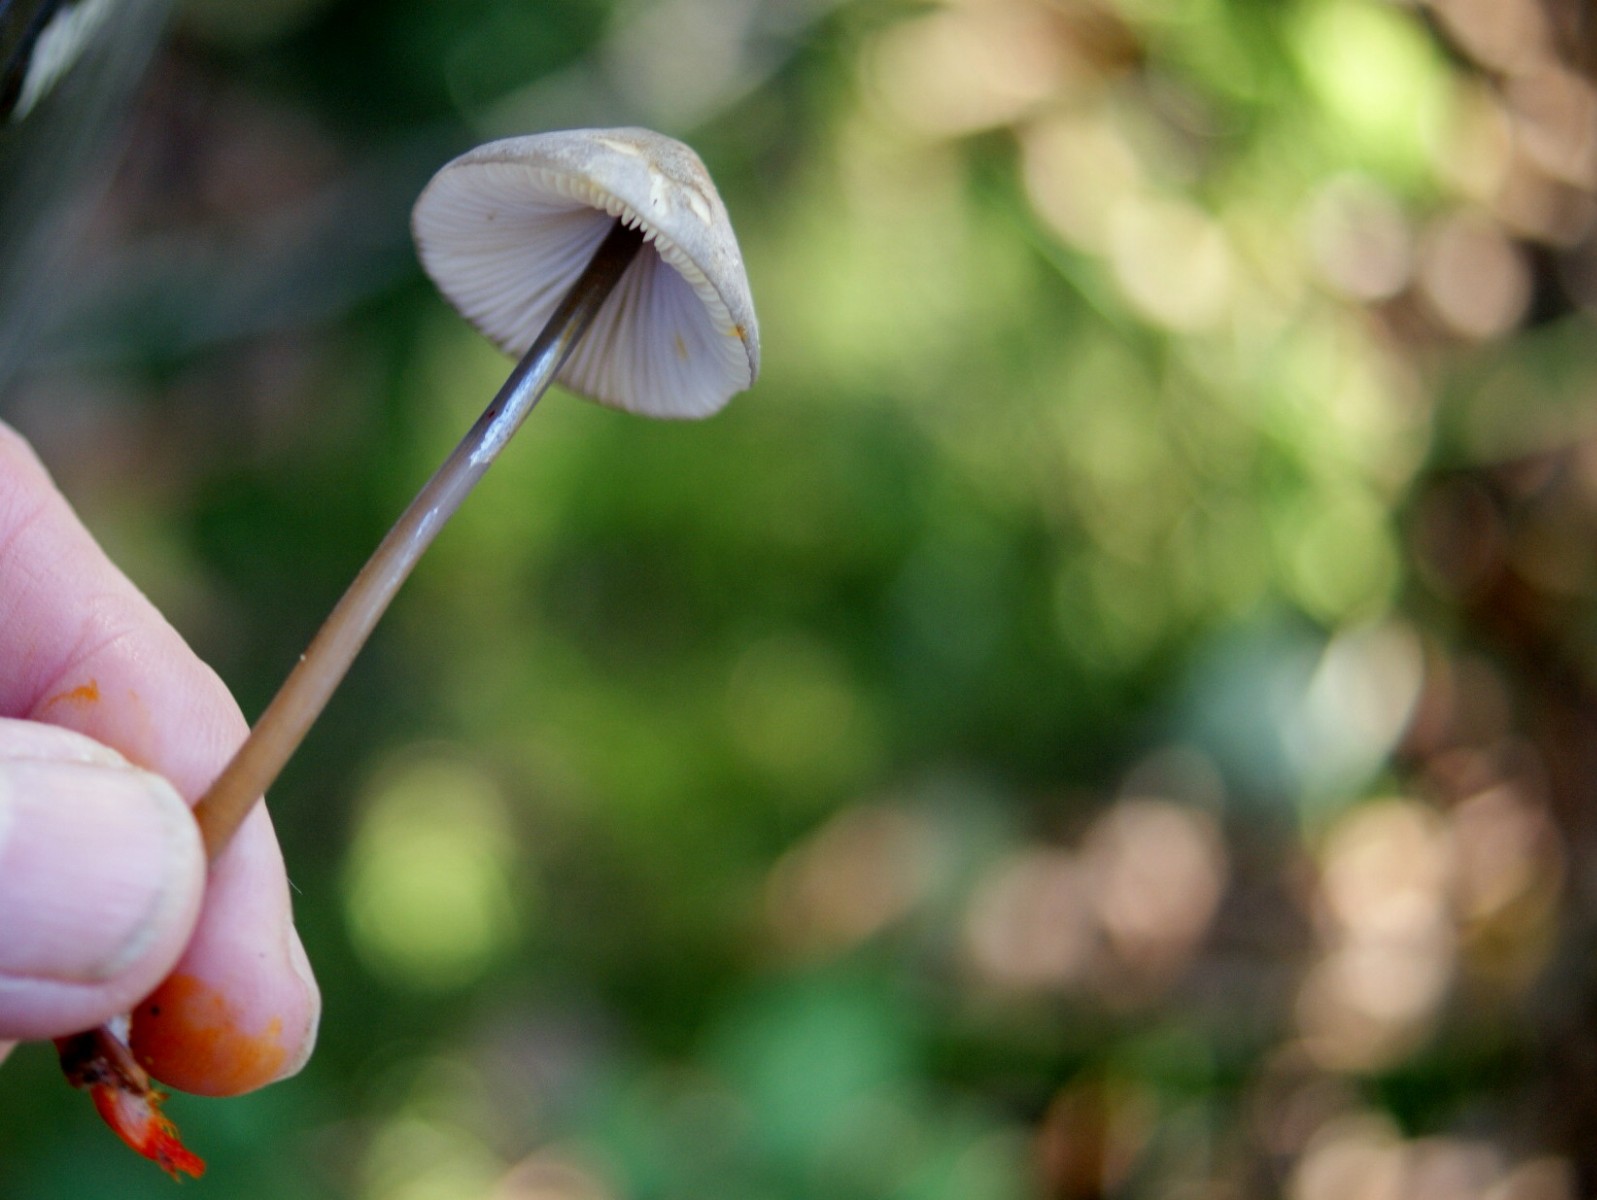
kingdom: Fungi
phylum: Basidiomycota
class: Agaricomycetes
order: Agaricales
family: Mycenaceae
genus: Mycena
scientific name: Mycena crocata
